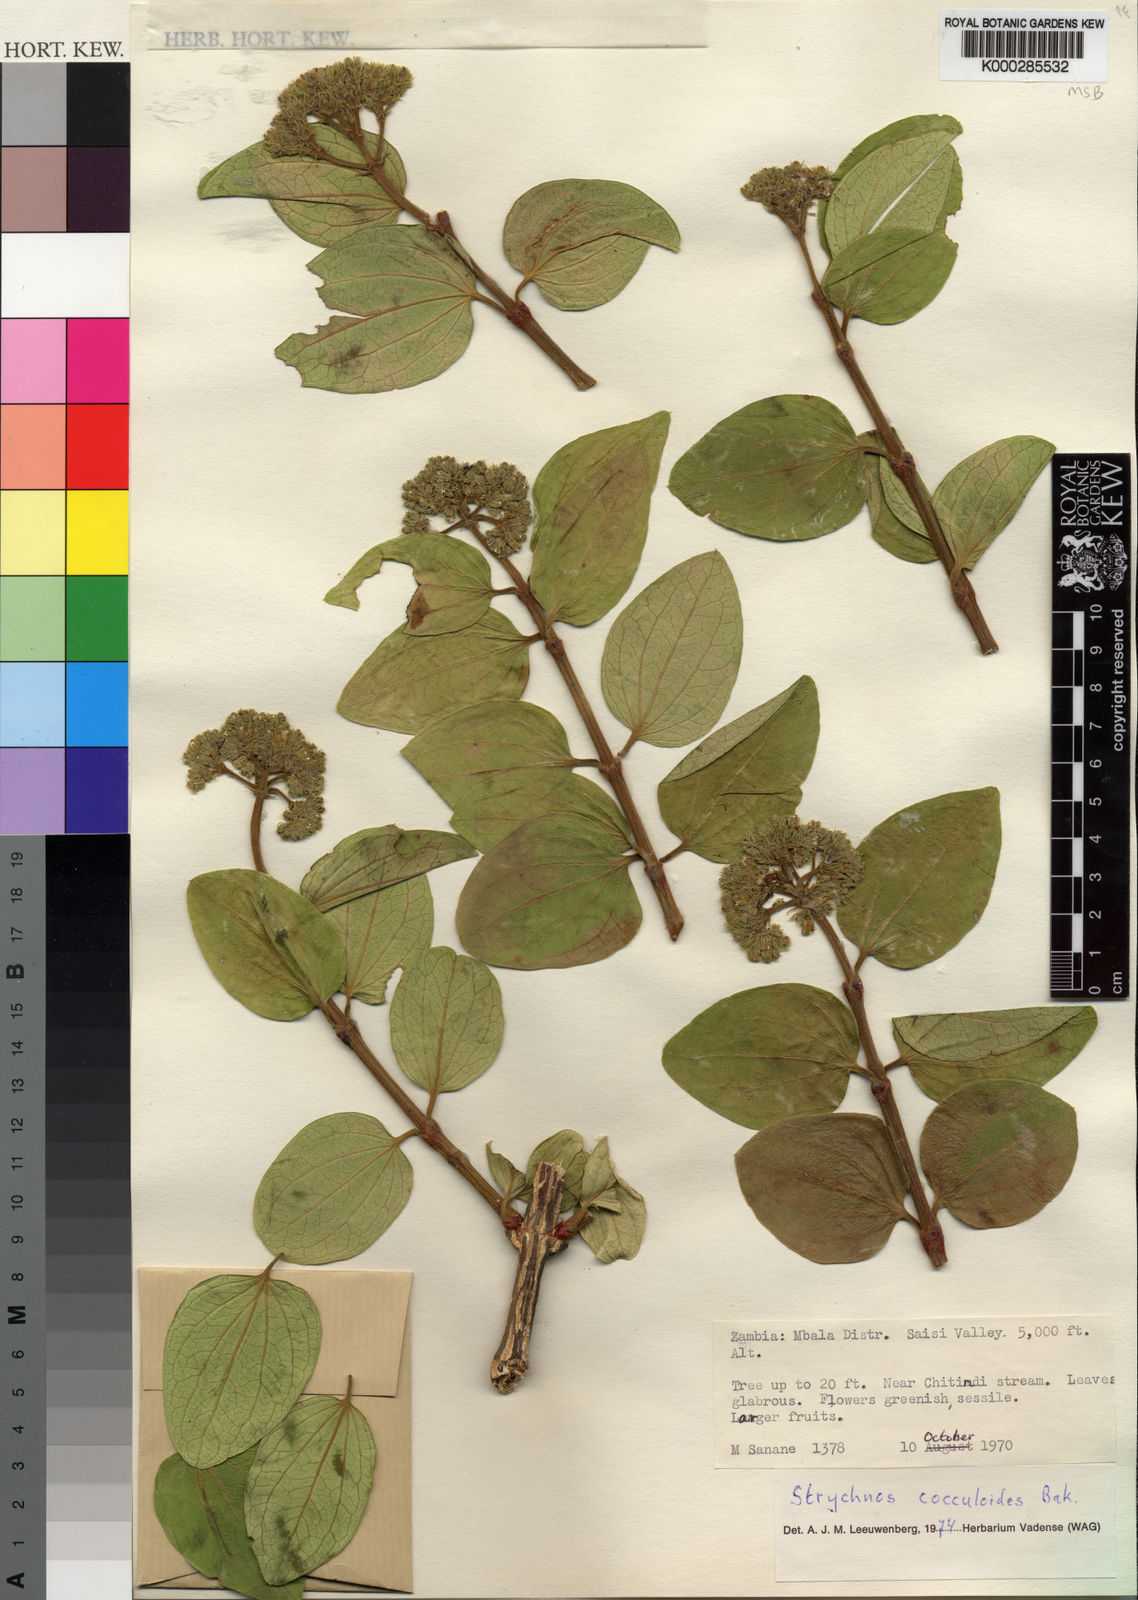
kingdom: Plantae
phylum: Tracheophyta
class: Magnoliopsida
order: Gentianales
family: Loganiaceae
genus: Strychnos
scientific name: Strychnos cocculoides
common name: Corky-bark monkey-orange
